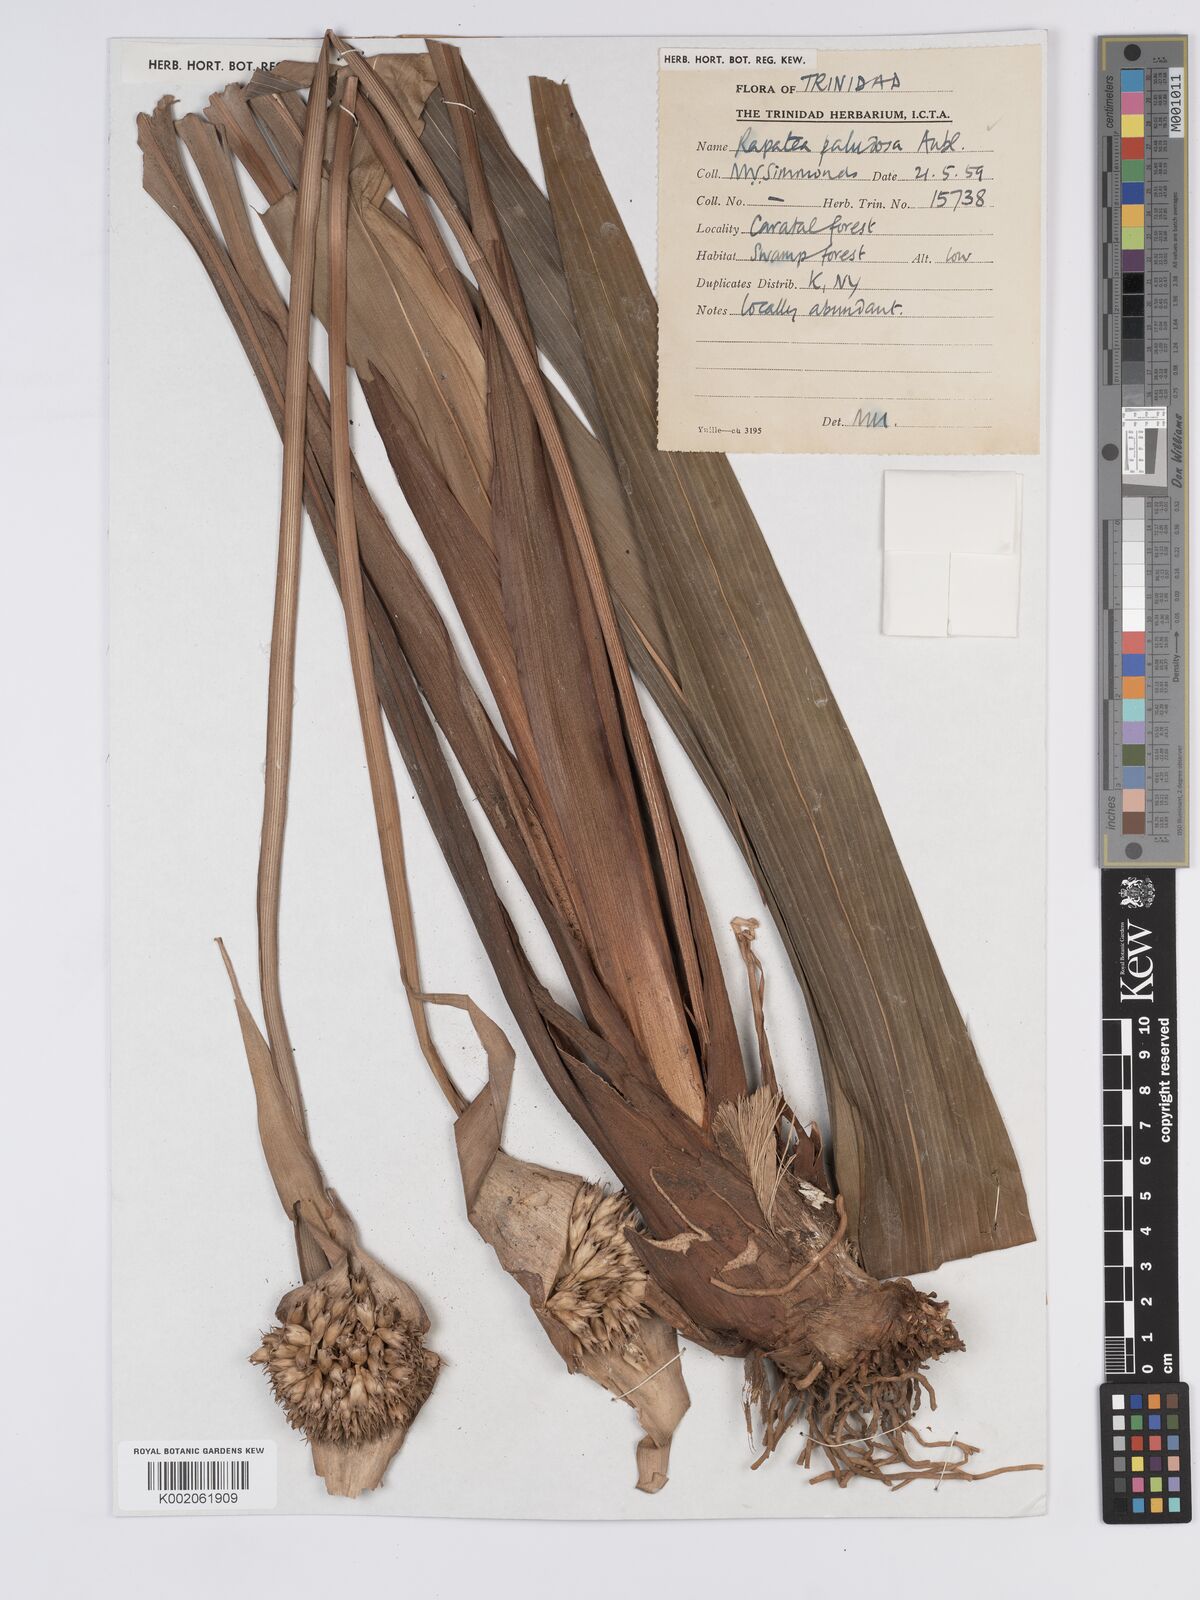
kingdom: Plantae
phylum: Tracheophyta
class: Liliopsida
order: Poales
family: Rapateaceae
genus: Rapatea
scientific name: Rapatea paludosa
